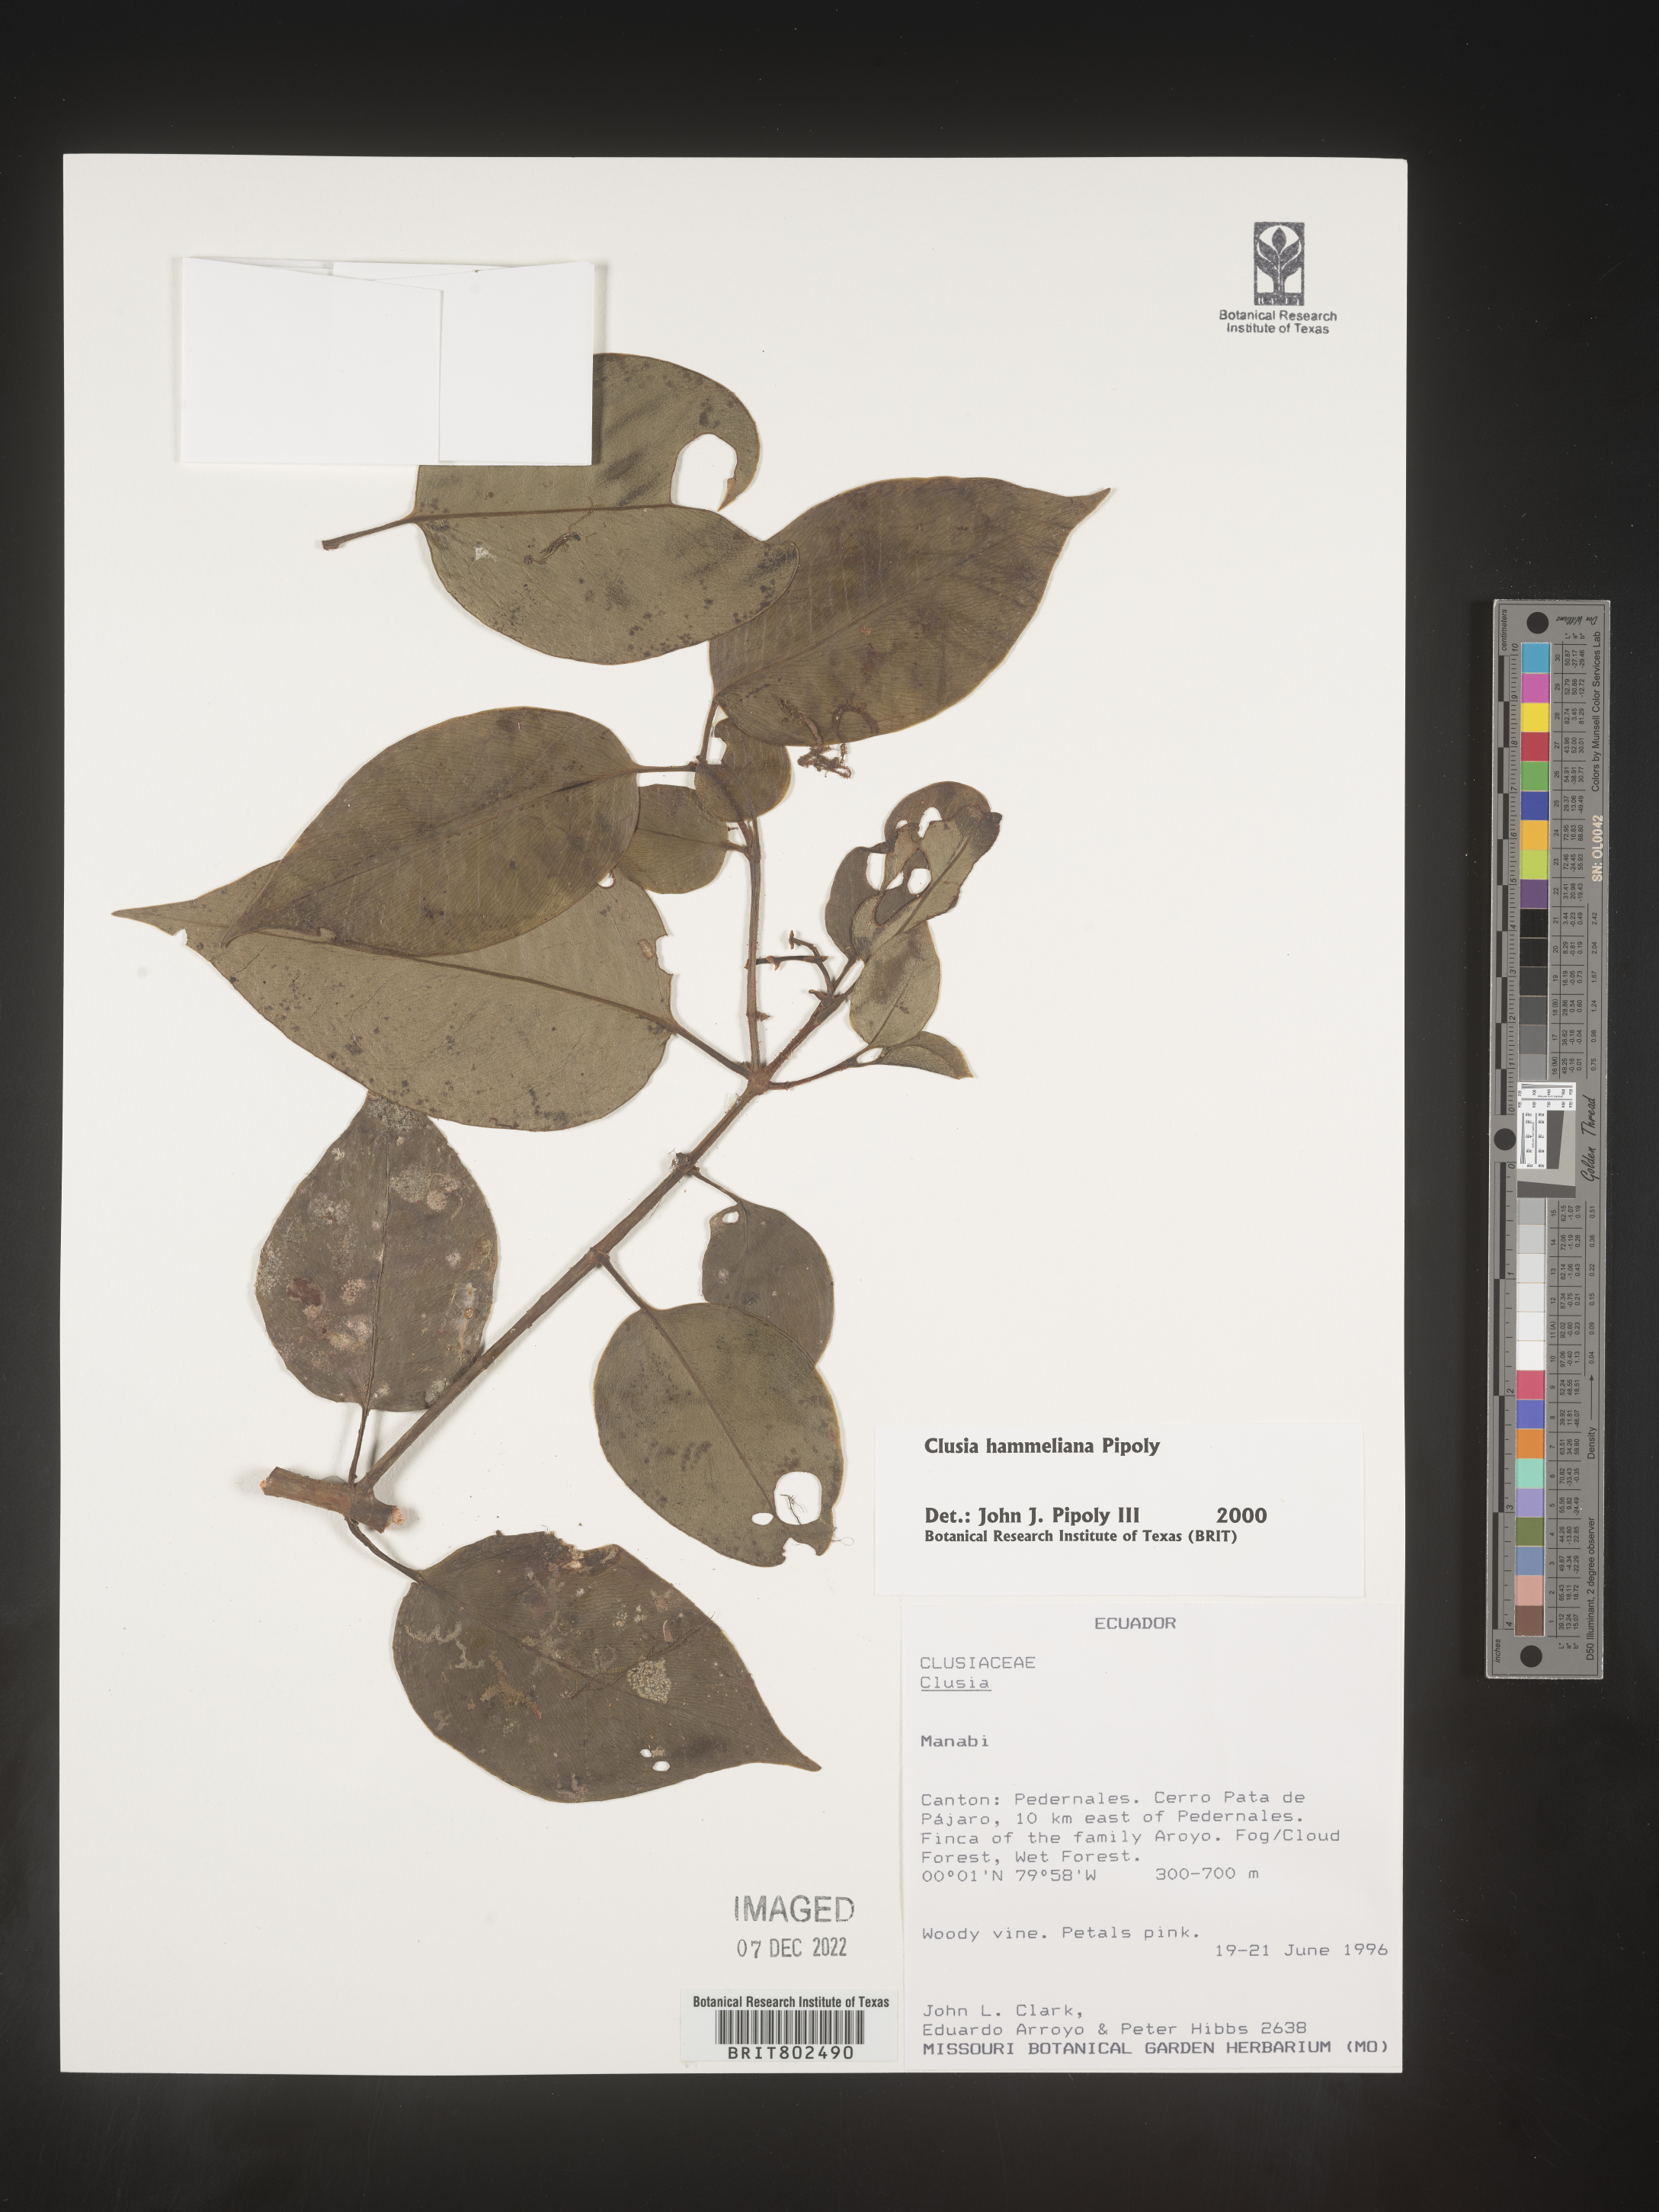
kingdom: Plantae
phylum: Tracheophyta
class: Magnoliopsida
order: Malpighiales
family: Clusiaceae
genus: Clusia
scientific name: Clusia hammeliana
